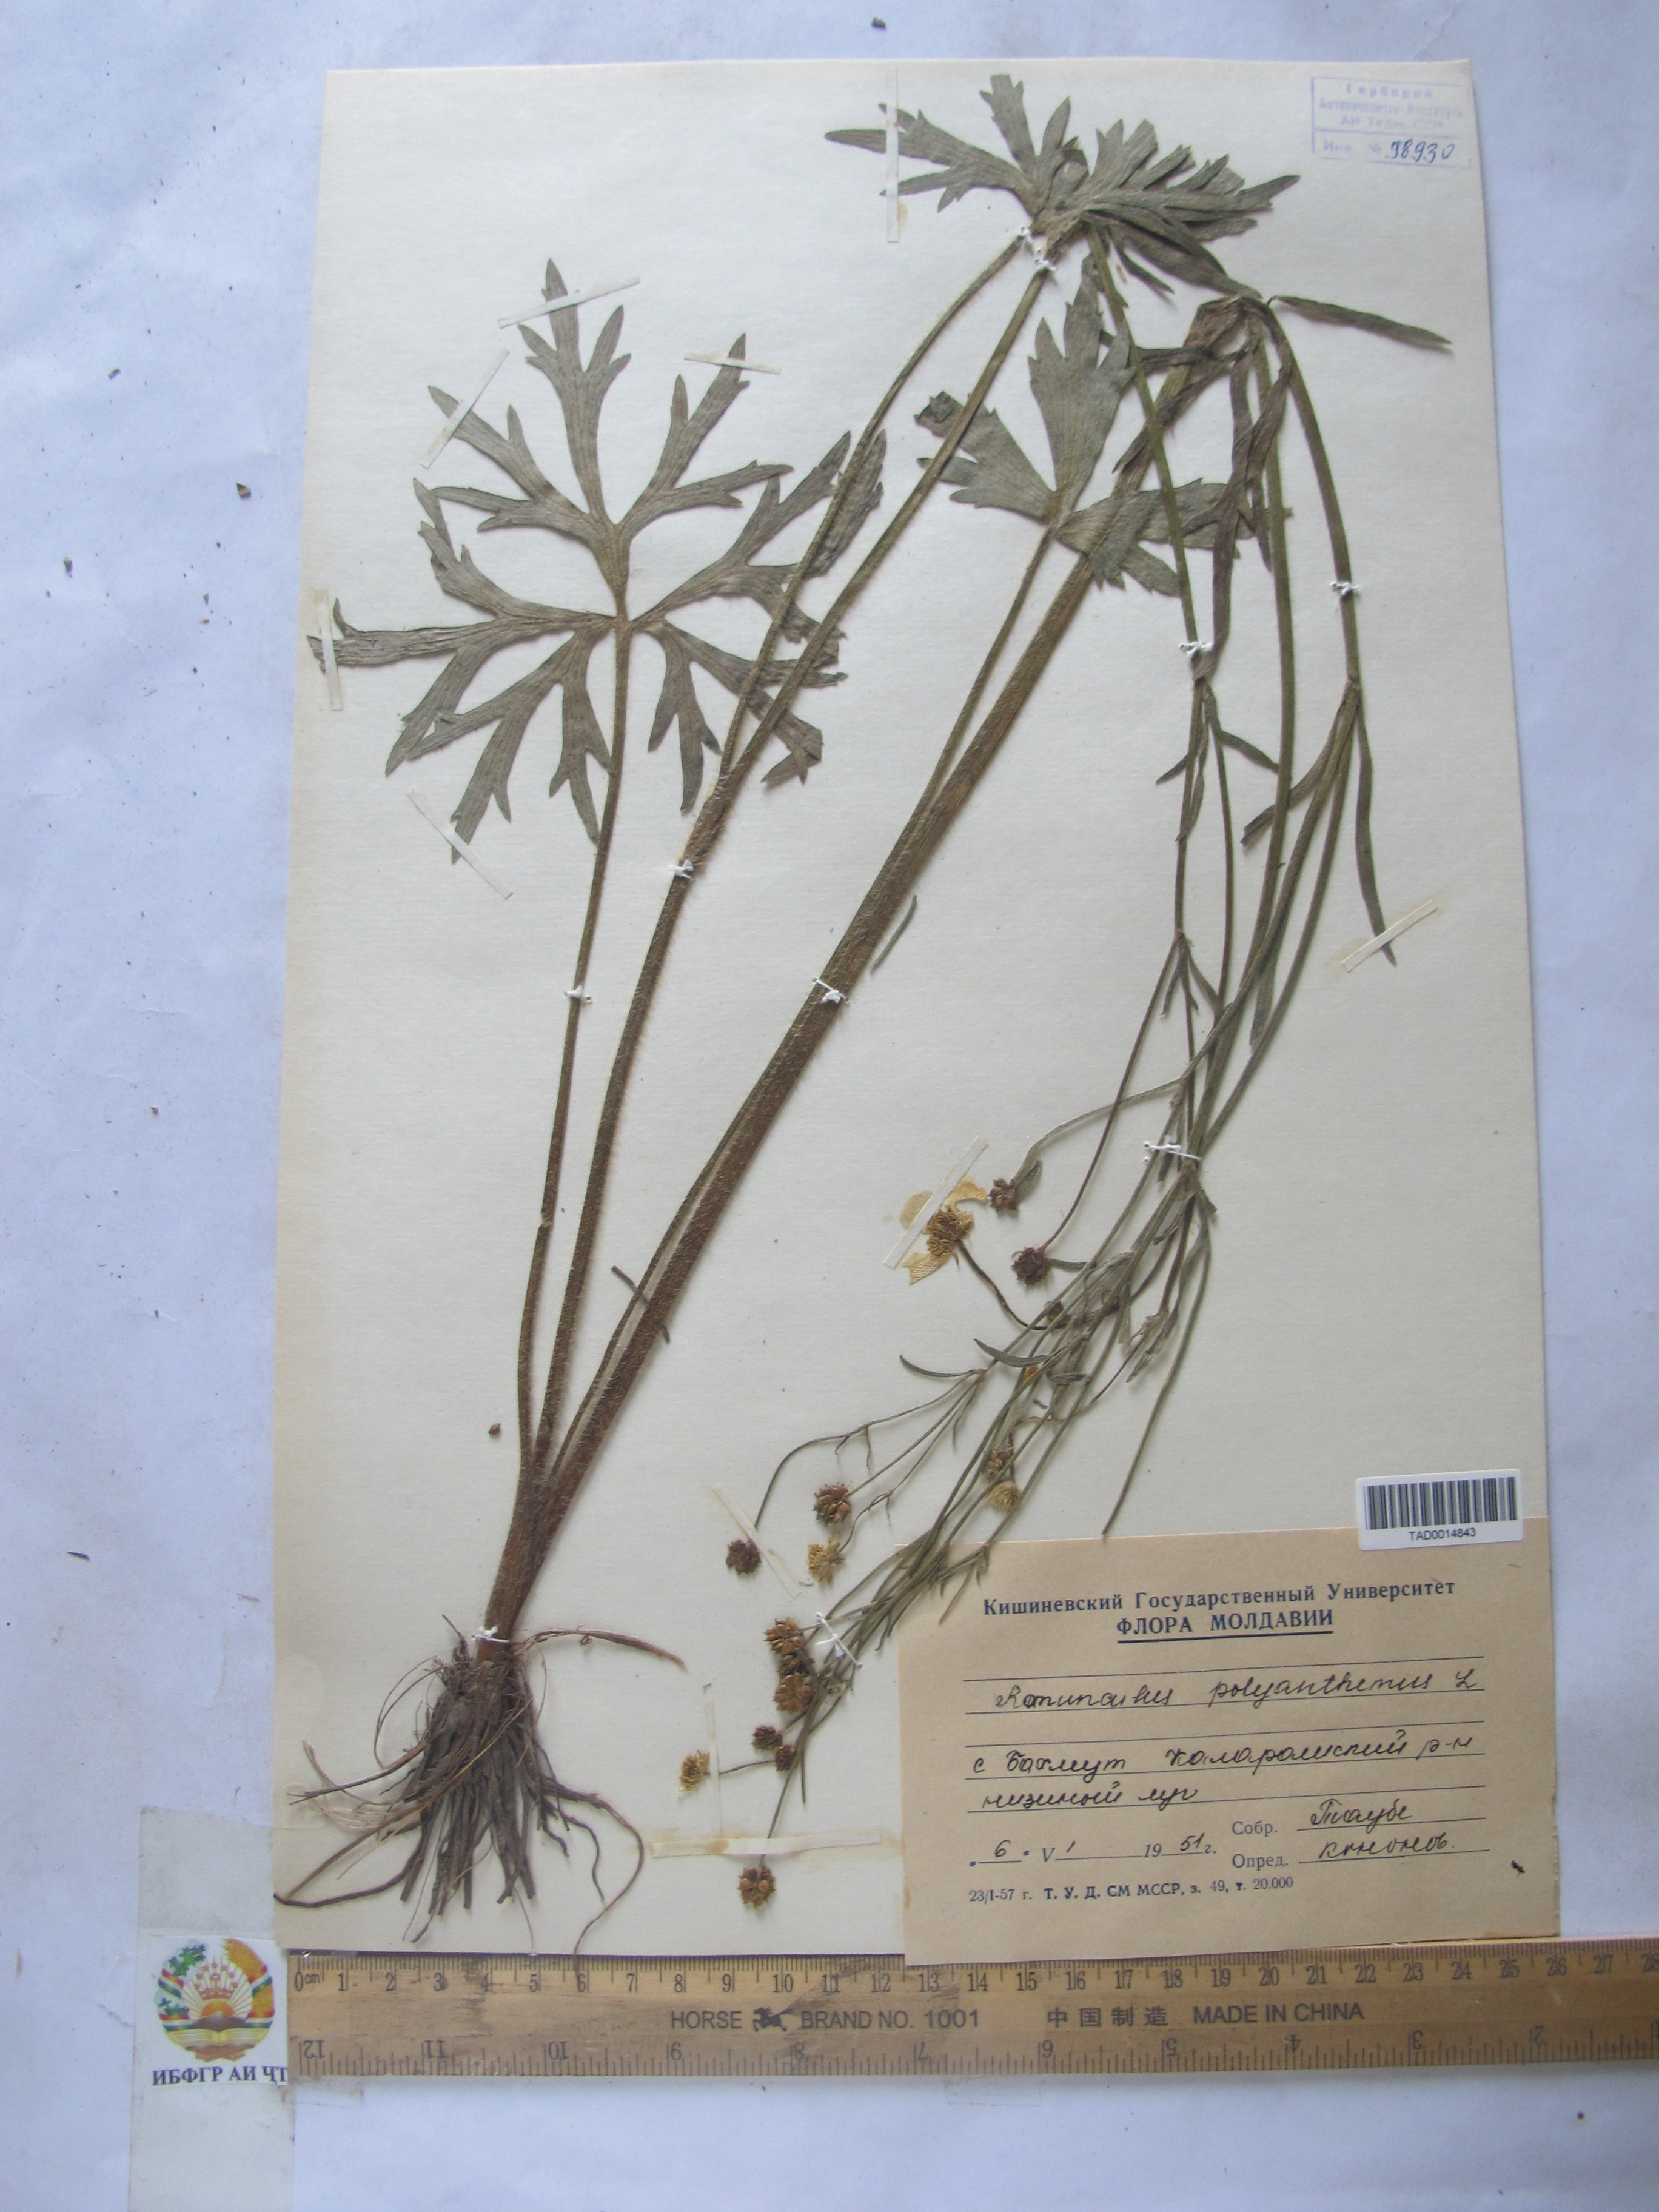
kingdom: Plantae
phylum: Tracheophyta
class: Magnoliopsida
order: Ranunculales
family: Ranunculaceae
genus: Ranunculus
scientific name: Ranunculus polyanthemos
